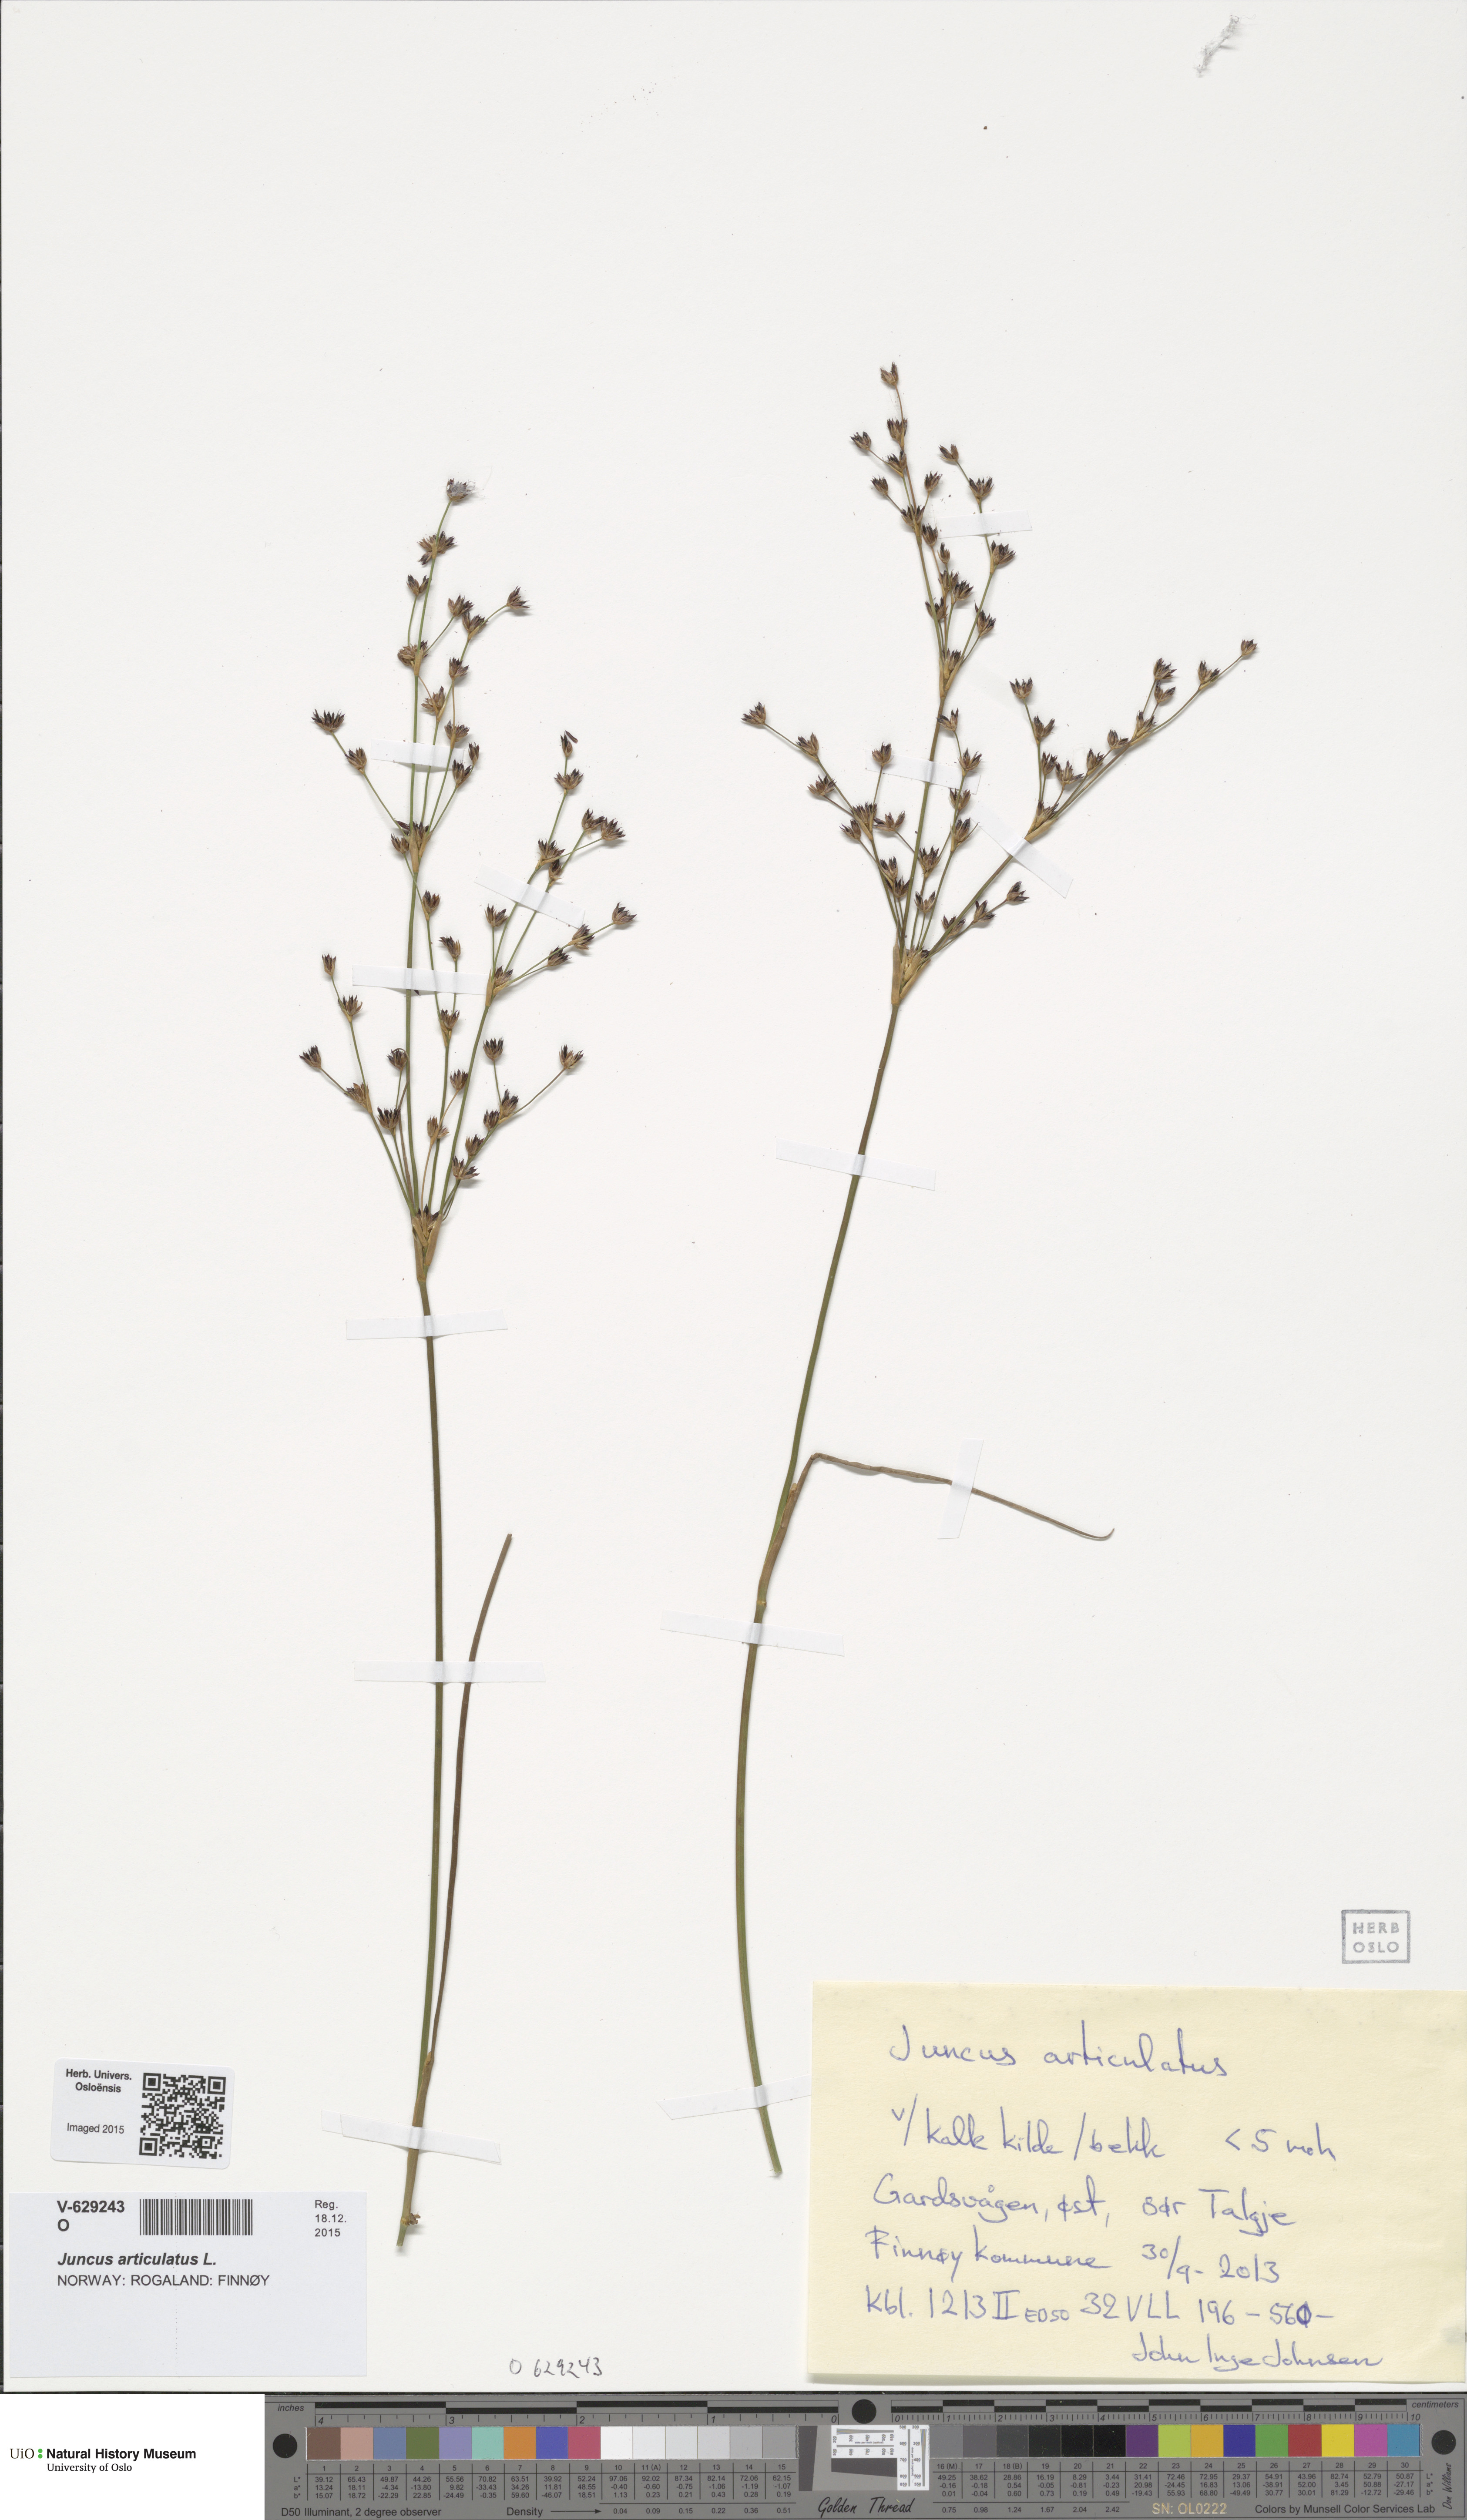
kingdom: Plantae
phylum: Tracheophyta
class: Liliopsida
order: Poales
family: Juncaceae
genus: Juncus
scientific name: Juncus articulatus
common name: Jointed rush
